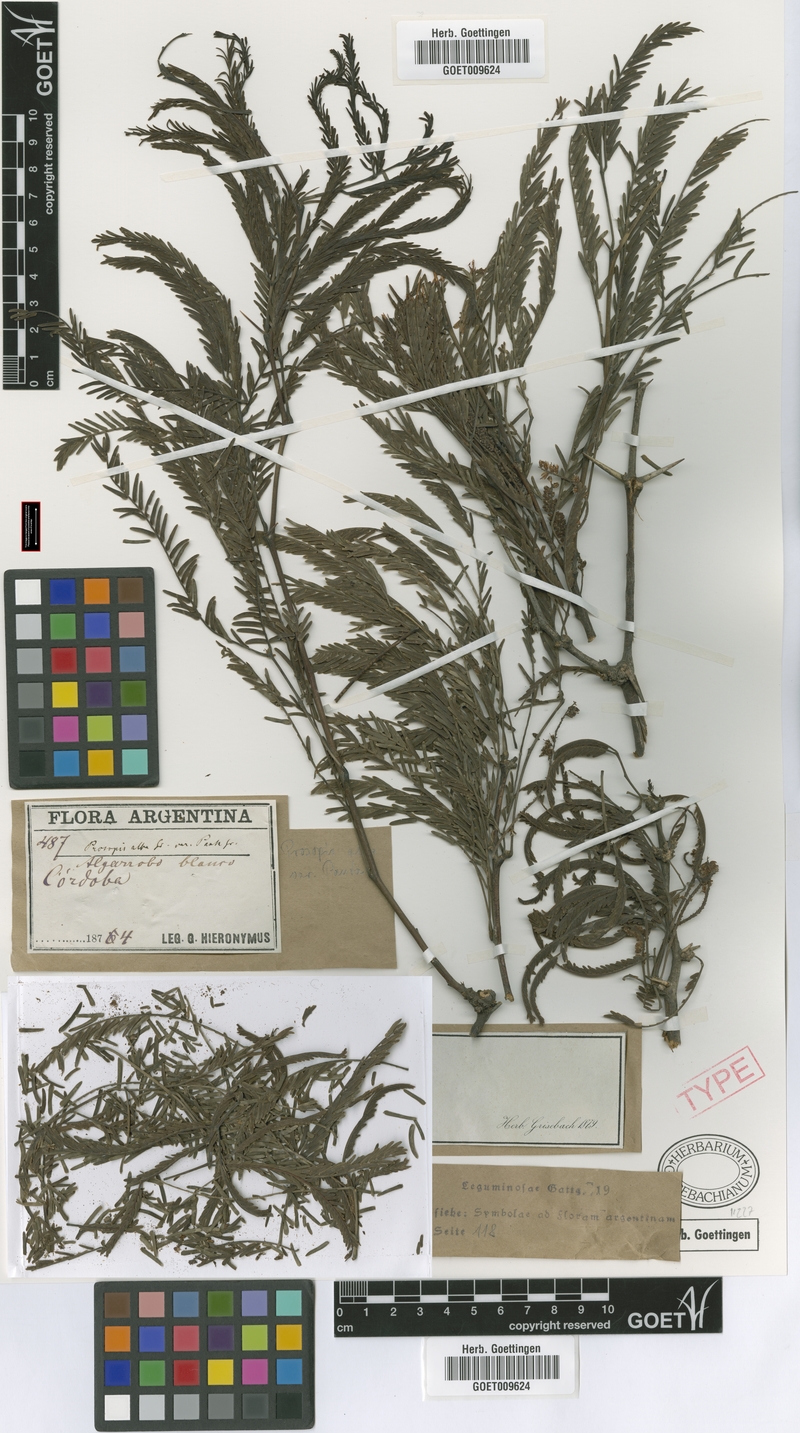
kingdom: Plantae
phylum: Tracheophyta
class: Magnoliopsida
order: Fabales
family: Fabaceae
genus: Prosopis
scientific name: Prosopis alba
